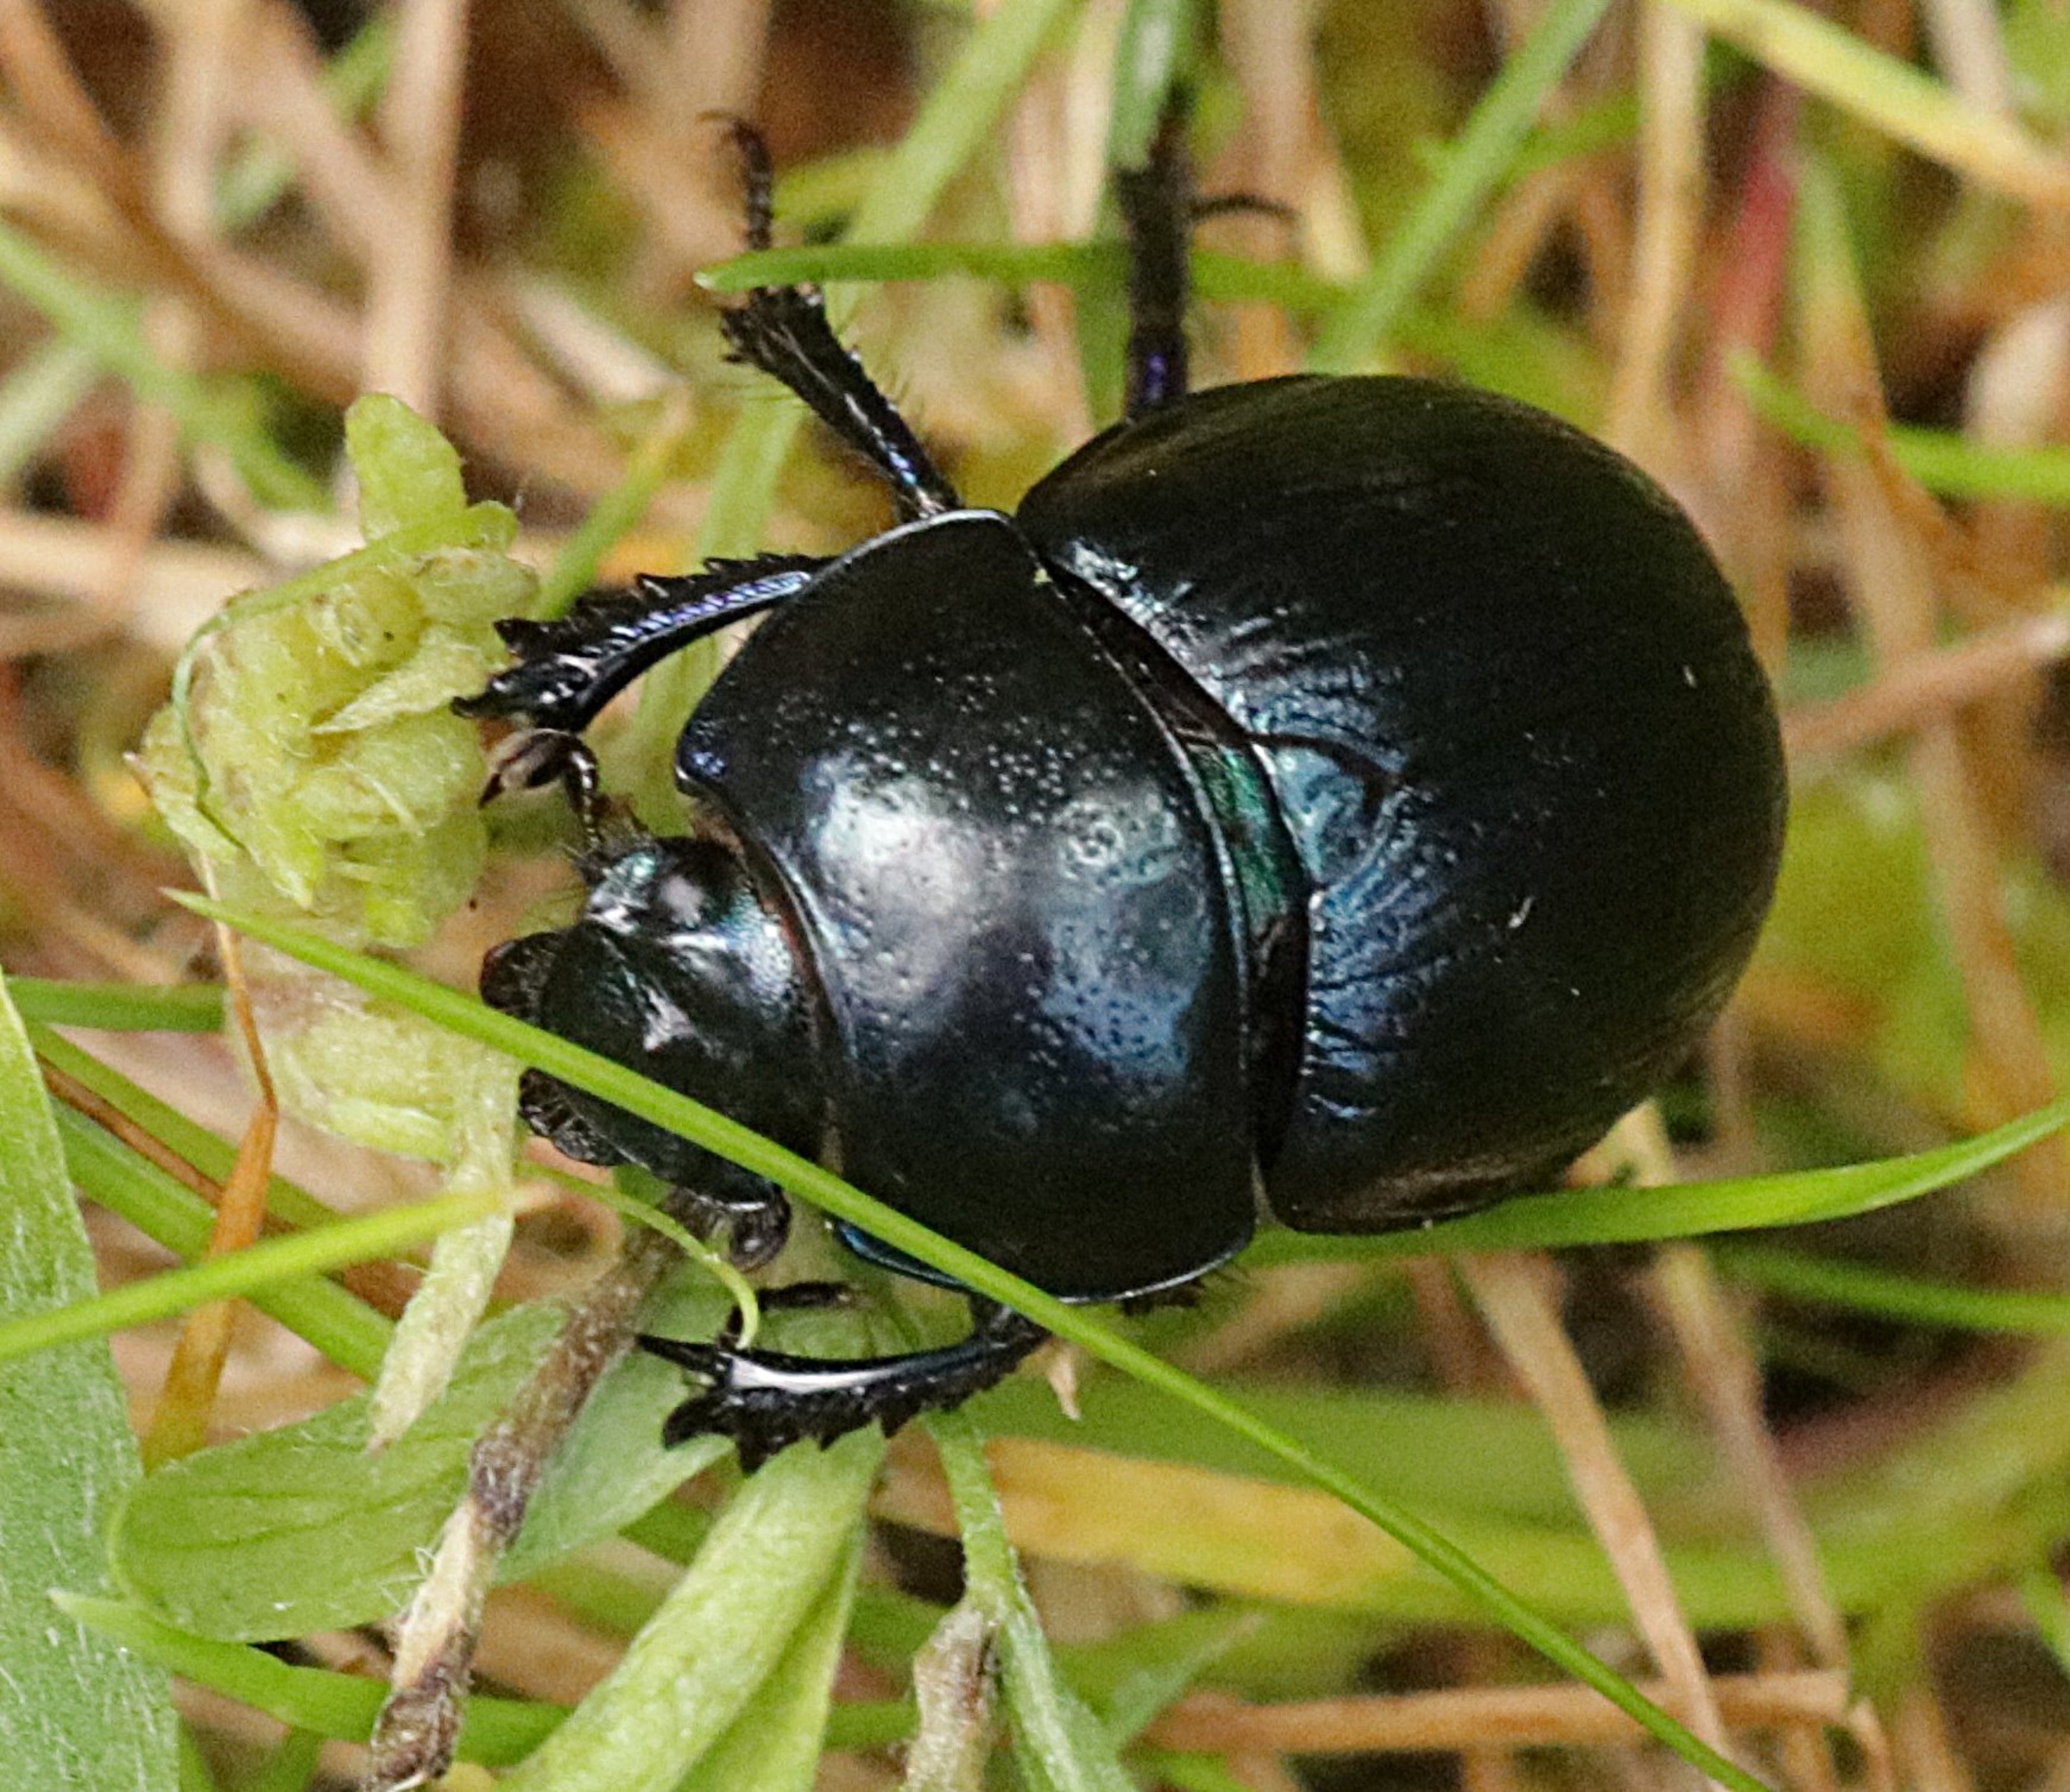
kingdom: Animalia
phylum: Arthropoda
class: Insecta
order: Coleoptera
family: Geotrupidae
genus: Anoplotrupes
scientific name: Anoplotrupes stercorosus
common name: Skovskarnbasse
